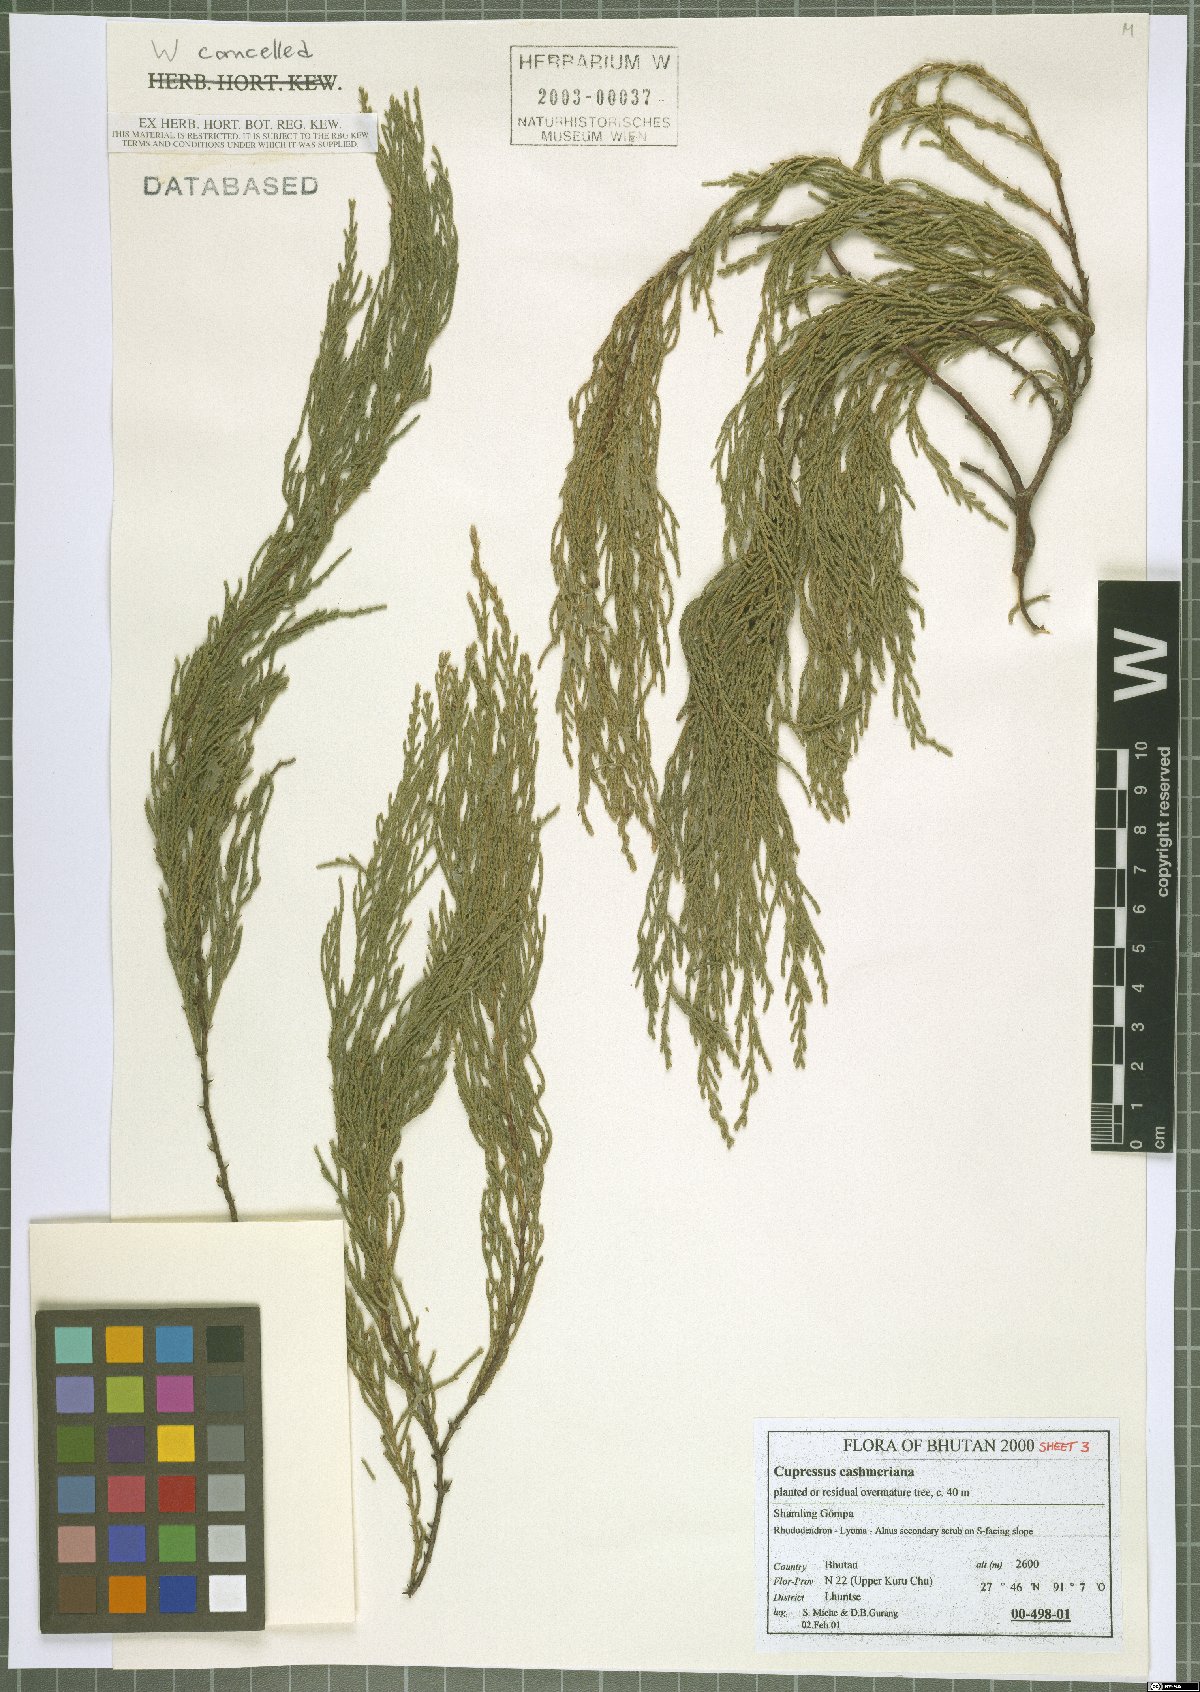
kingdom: Plantae
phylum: Tracheophyta
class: Pinopsida
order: Pinales
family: Cupressaceae
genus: Cupressus
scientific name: Cupressus cashmeriana
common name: Bhutan cypress
